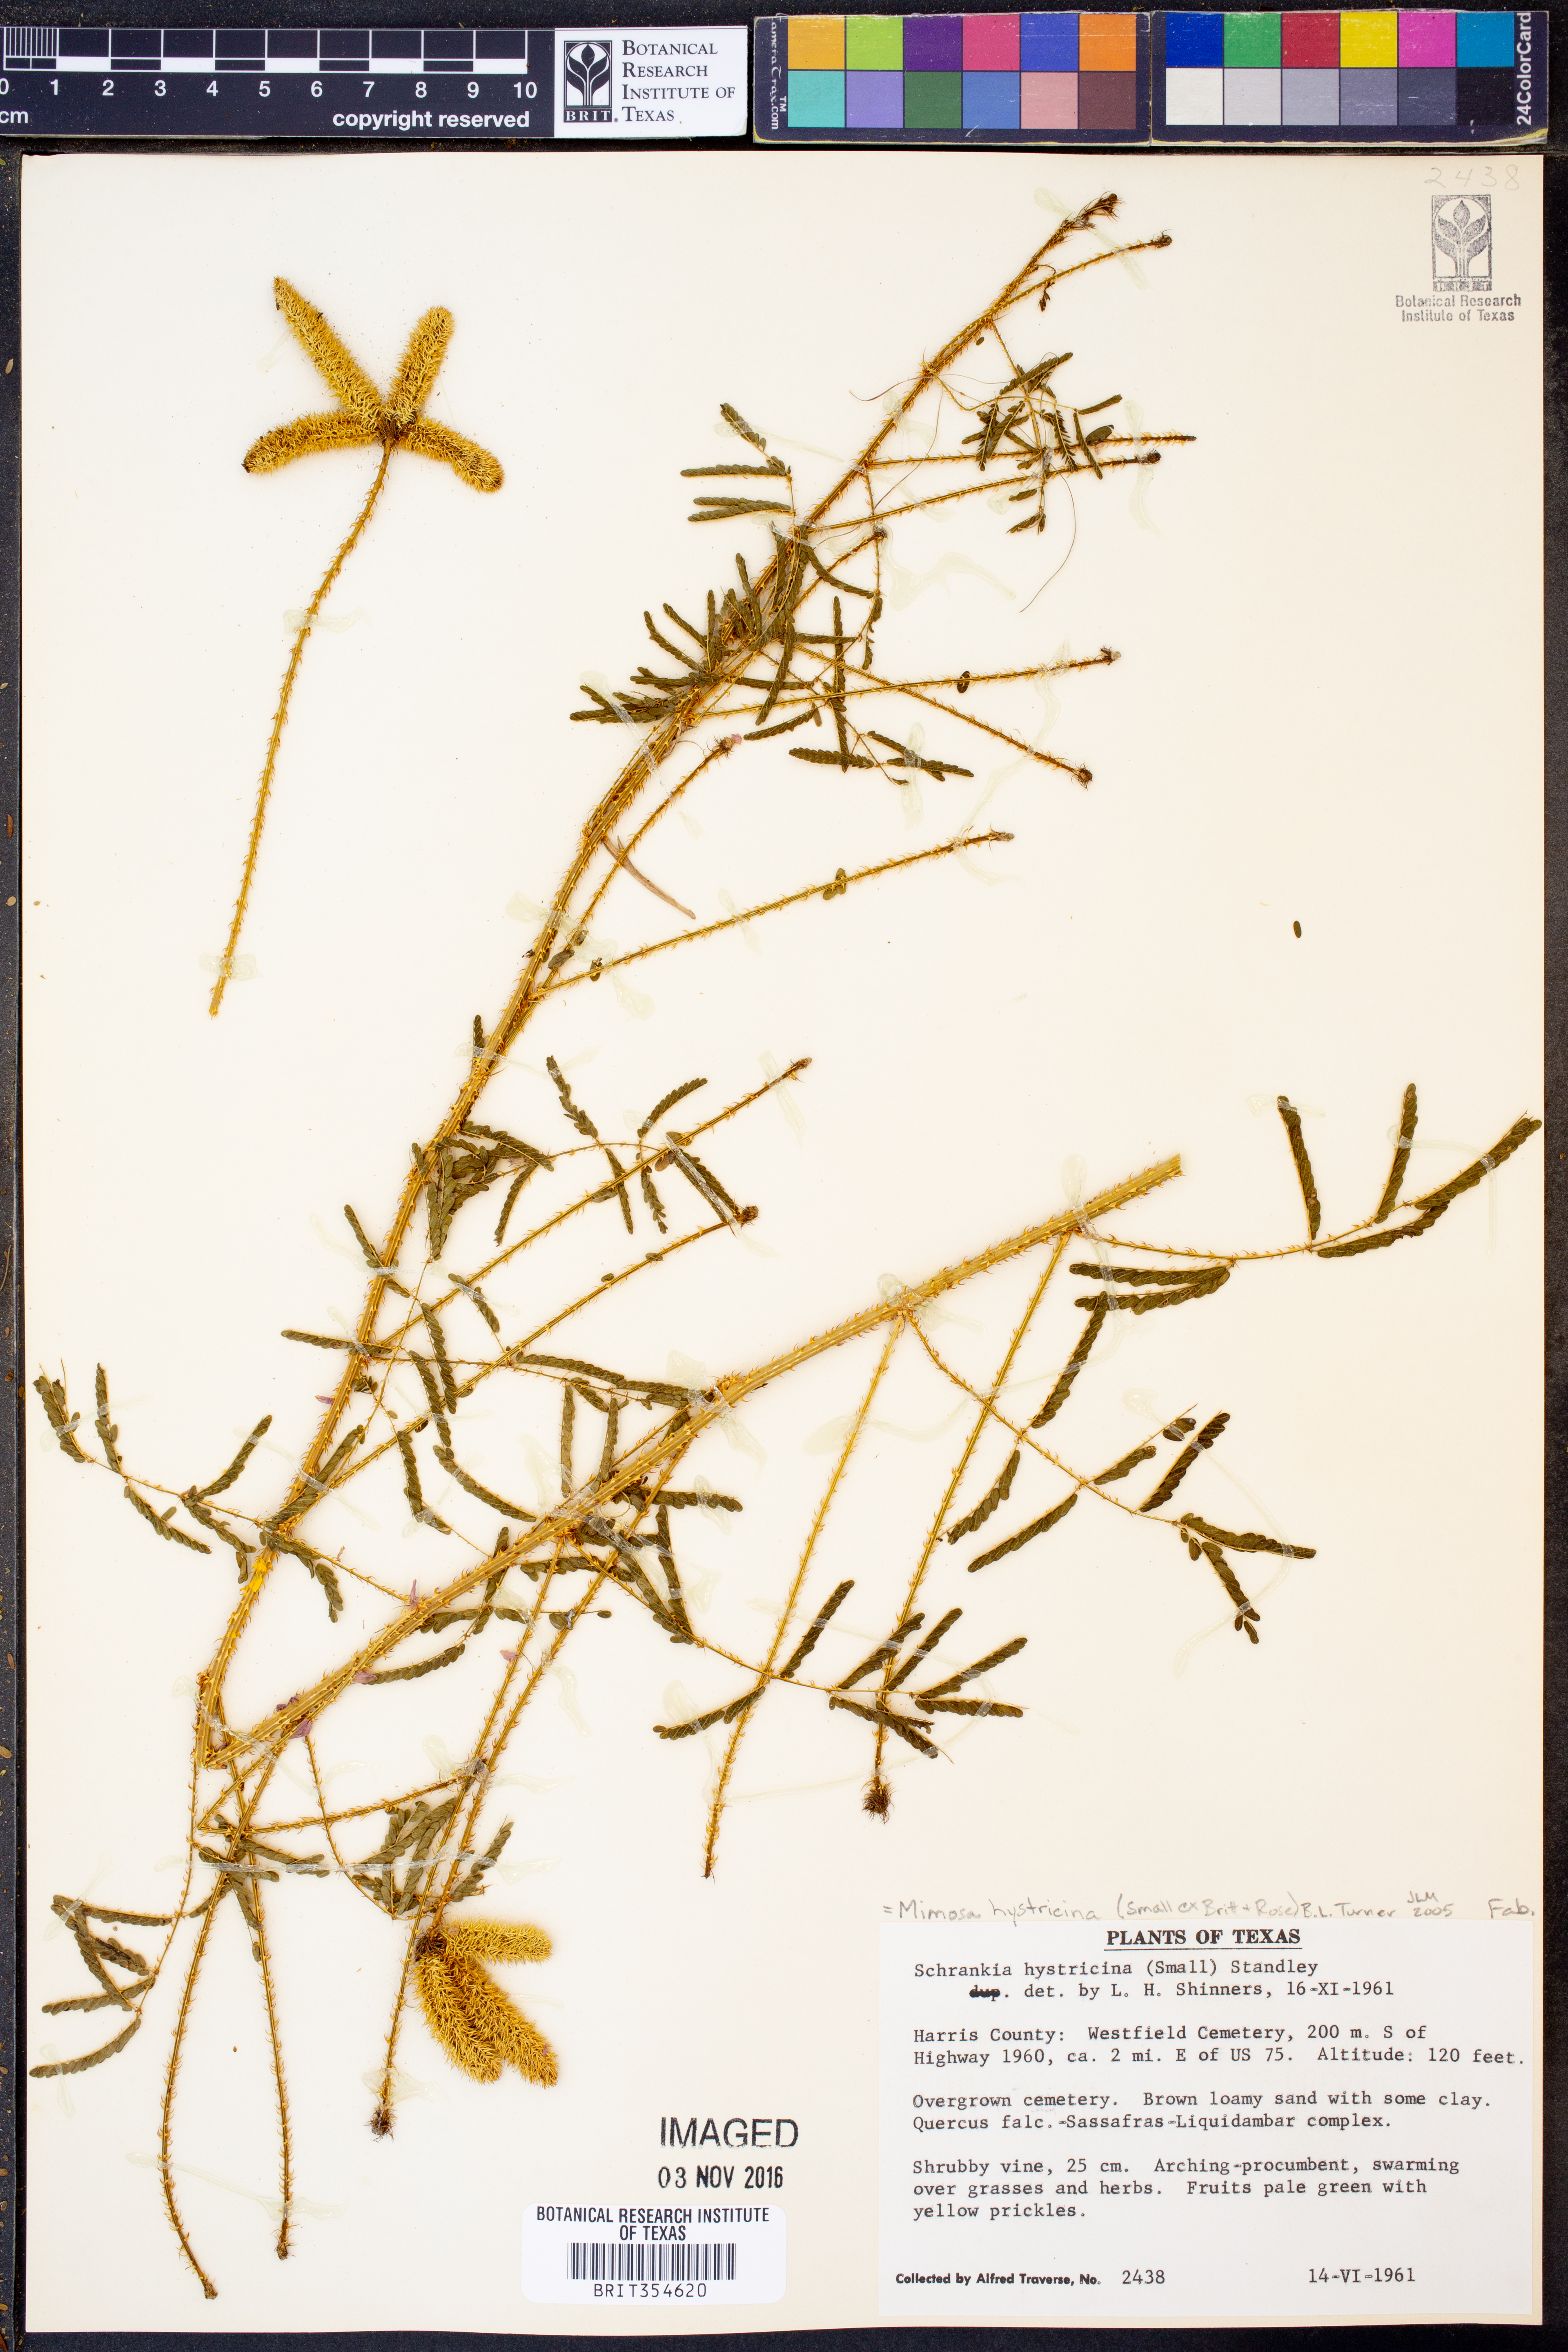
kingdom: Plantae
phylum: Tracheophyta
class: Magnoliopsida
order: Fabales
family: Fabaceae
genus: Mimosa
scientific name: Mimosa hystricina
